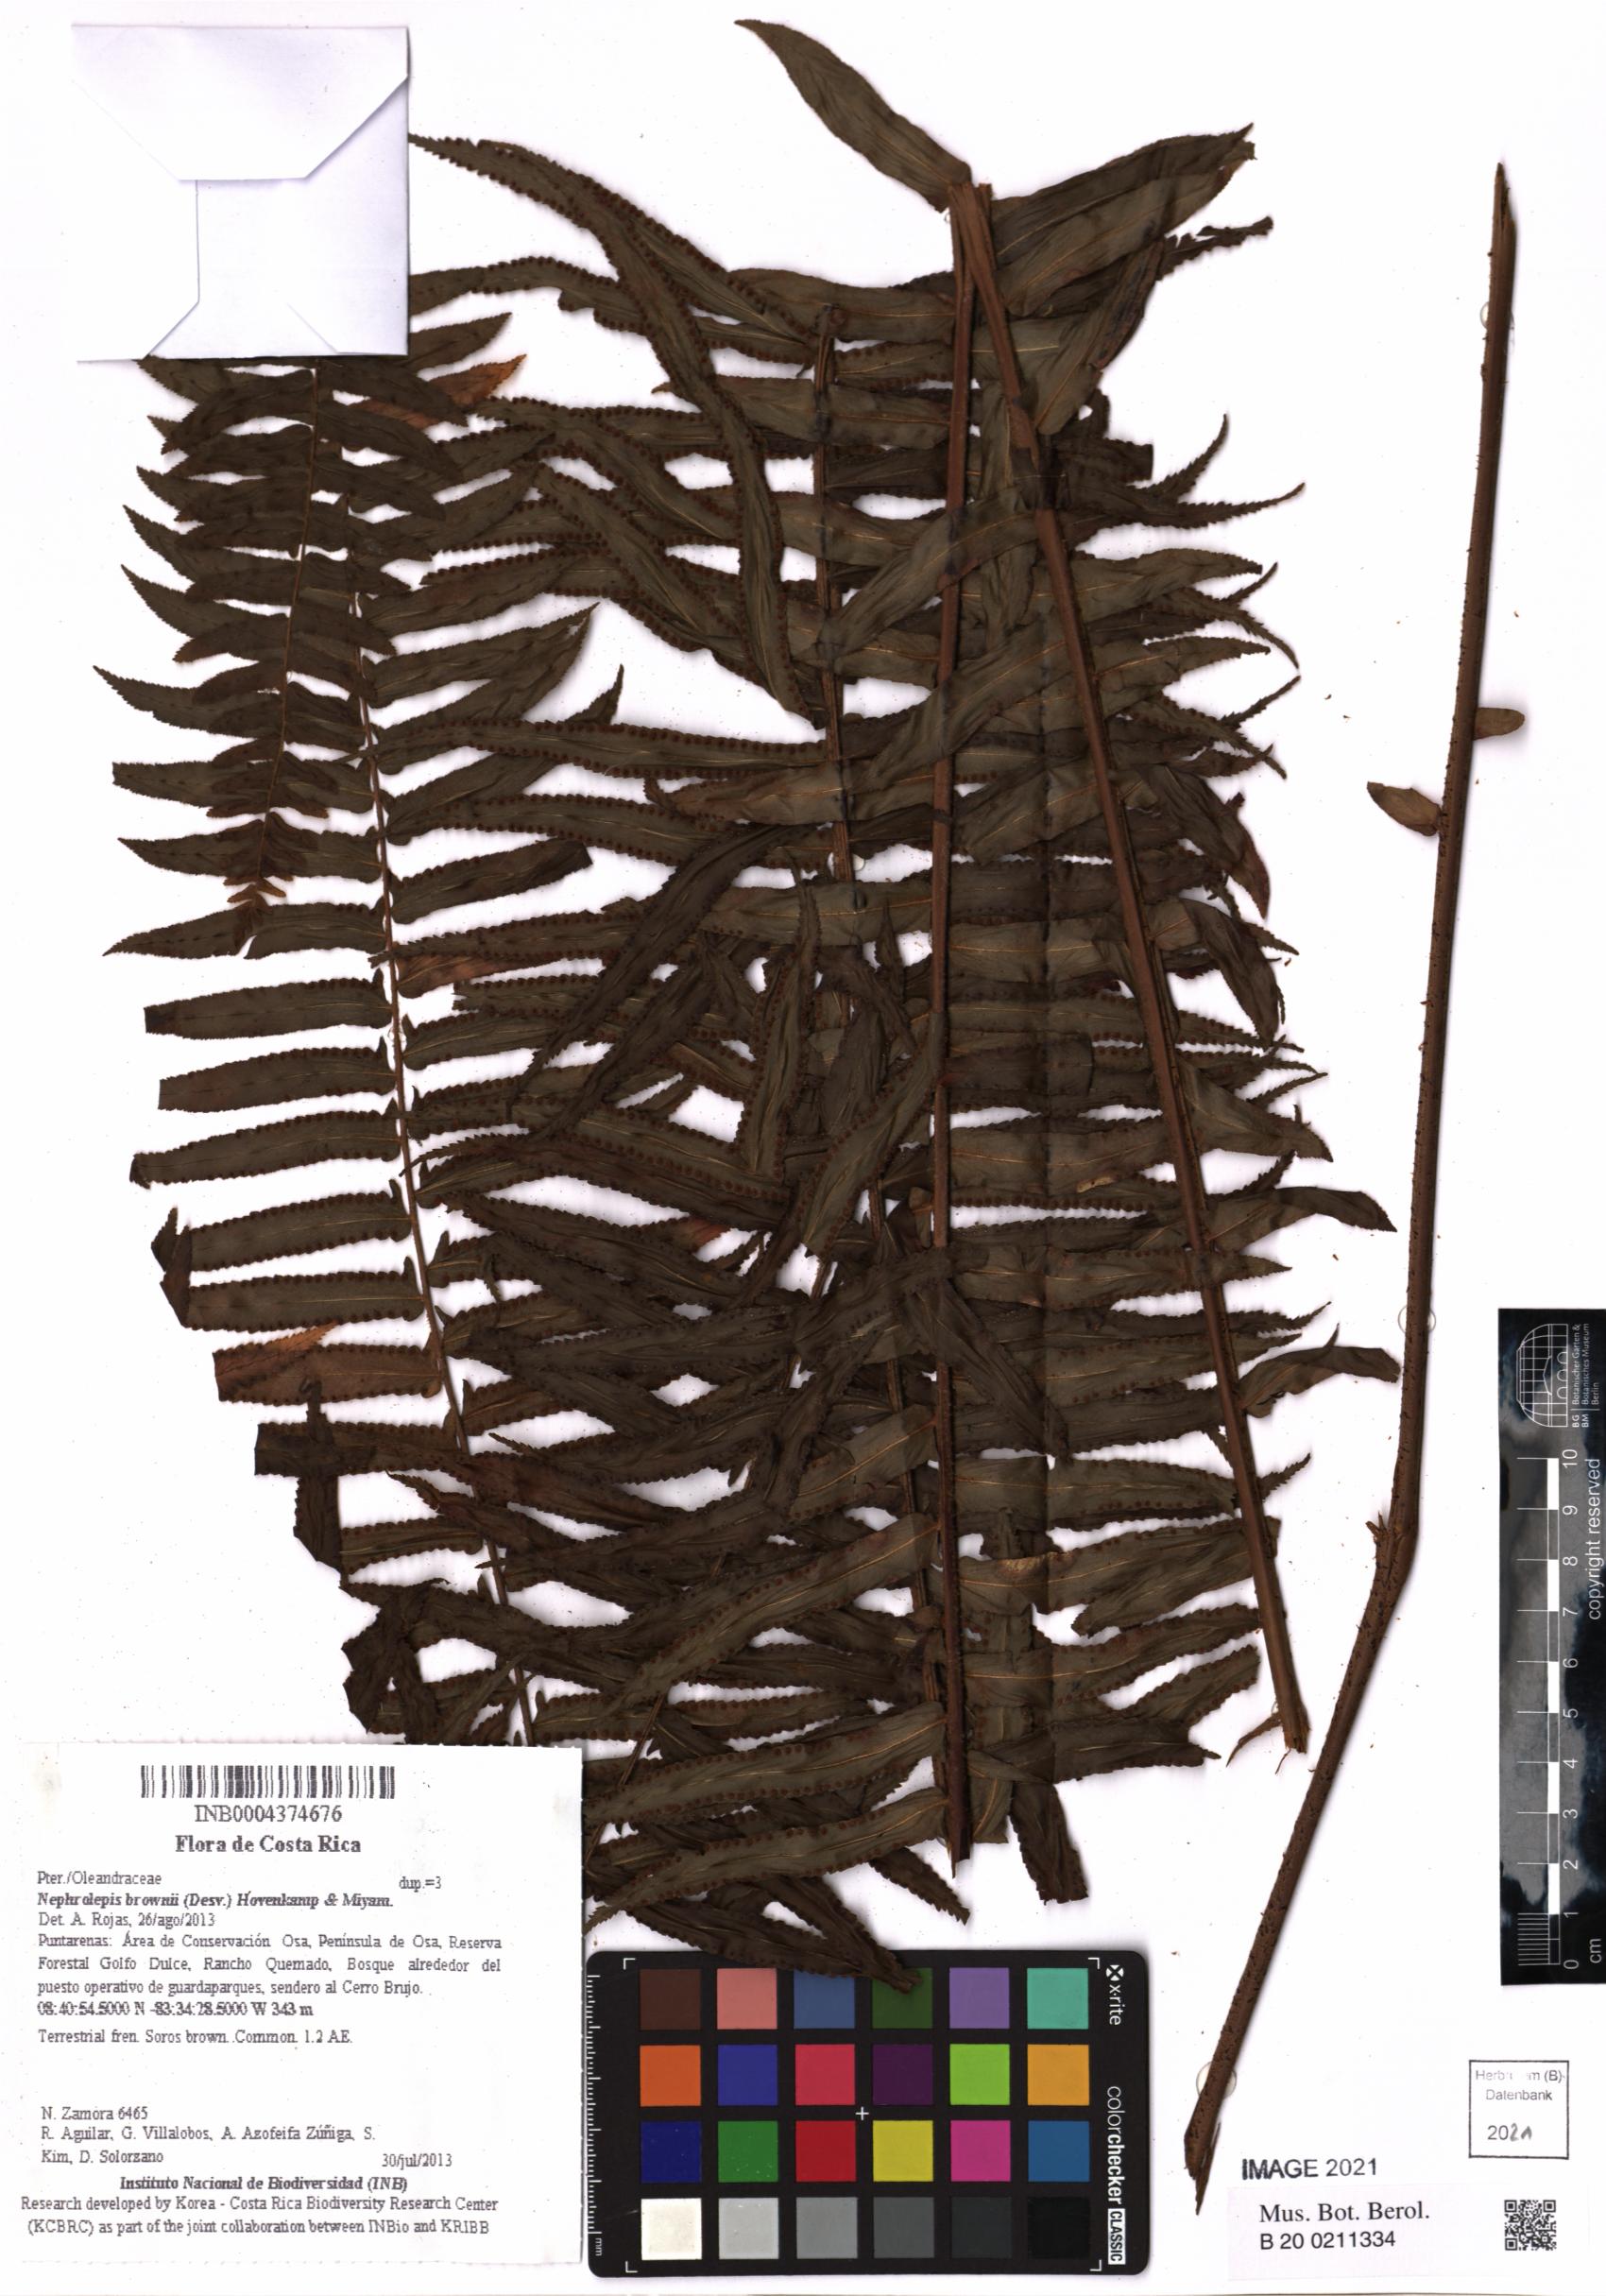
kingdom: Plantae
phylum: Tracheophyta
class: Polypodiopsida
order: Polypodiales
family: Nephrolepidaceae
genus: Nephrolepis
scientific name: Nephrolepis brownii
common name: Asian swordfern
